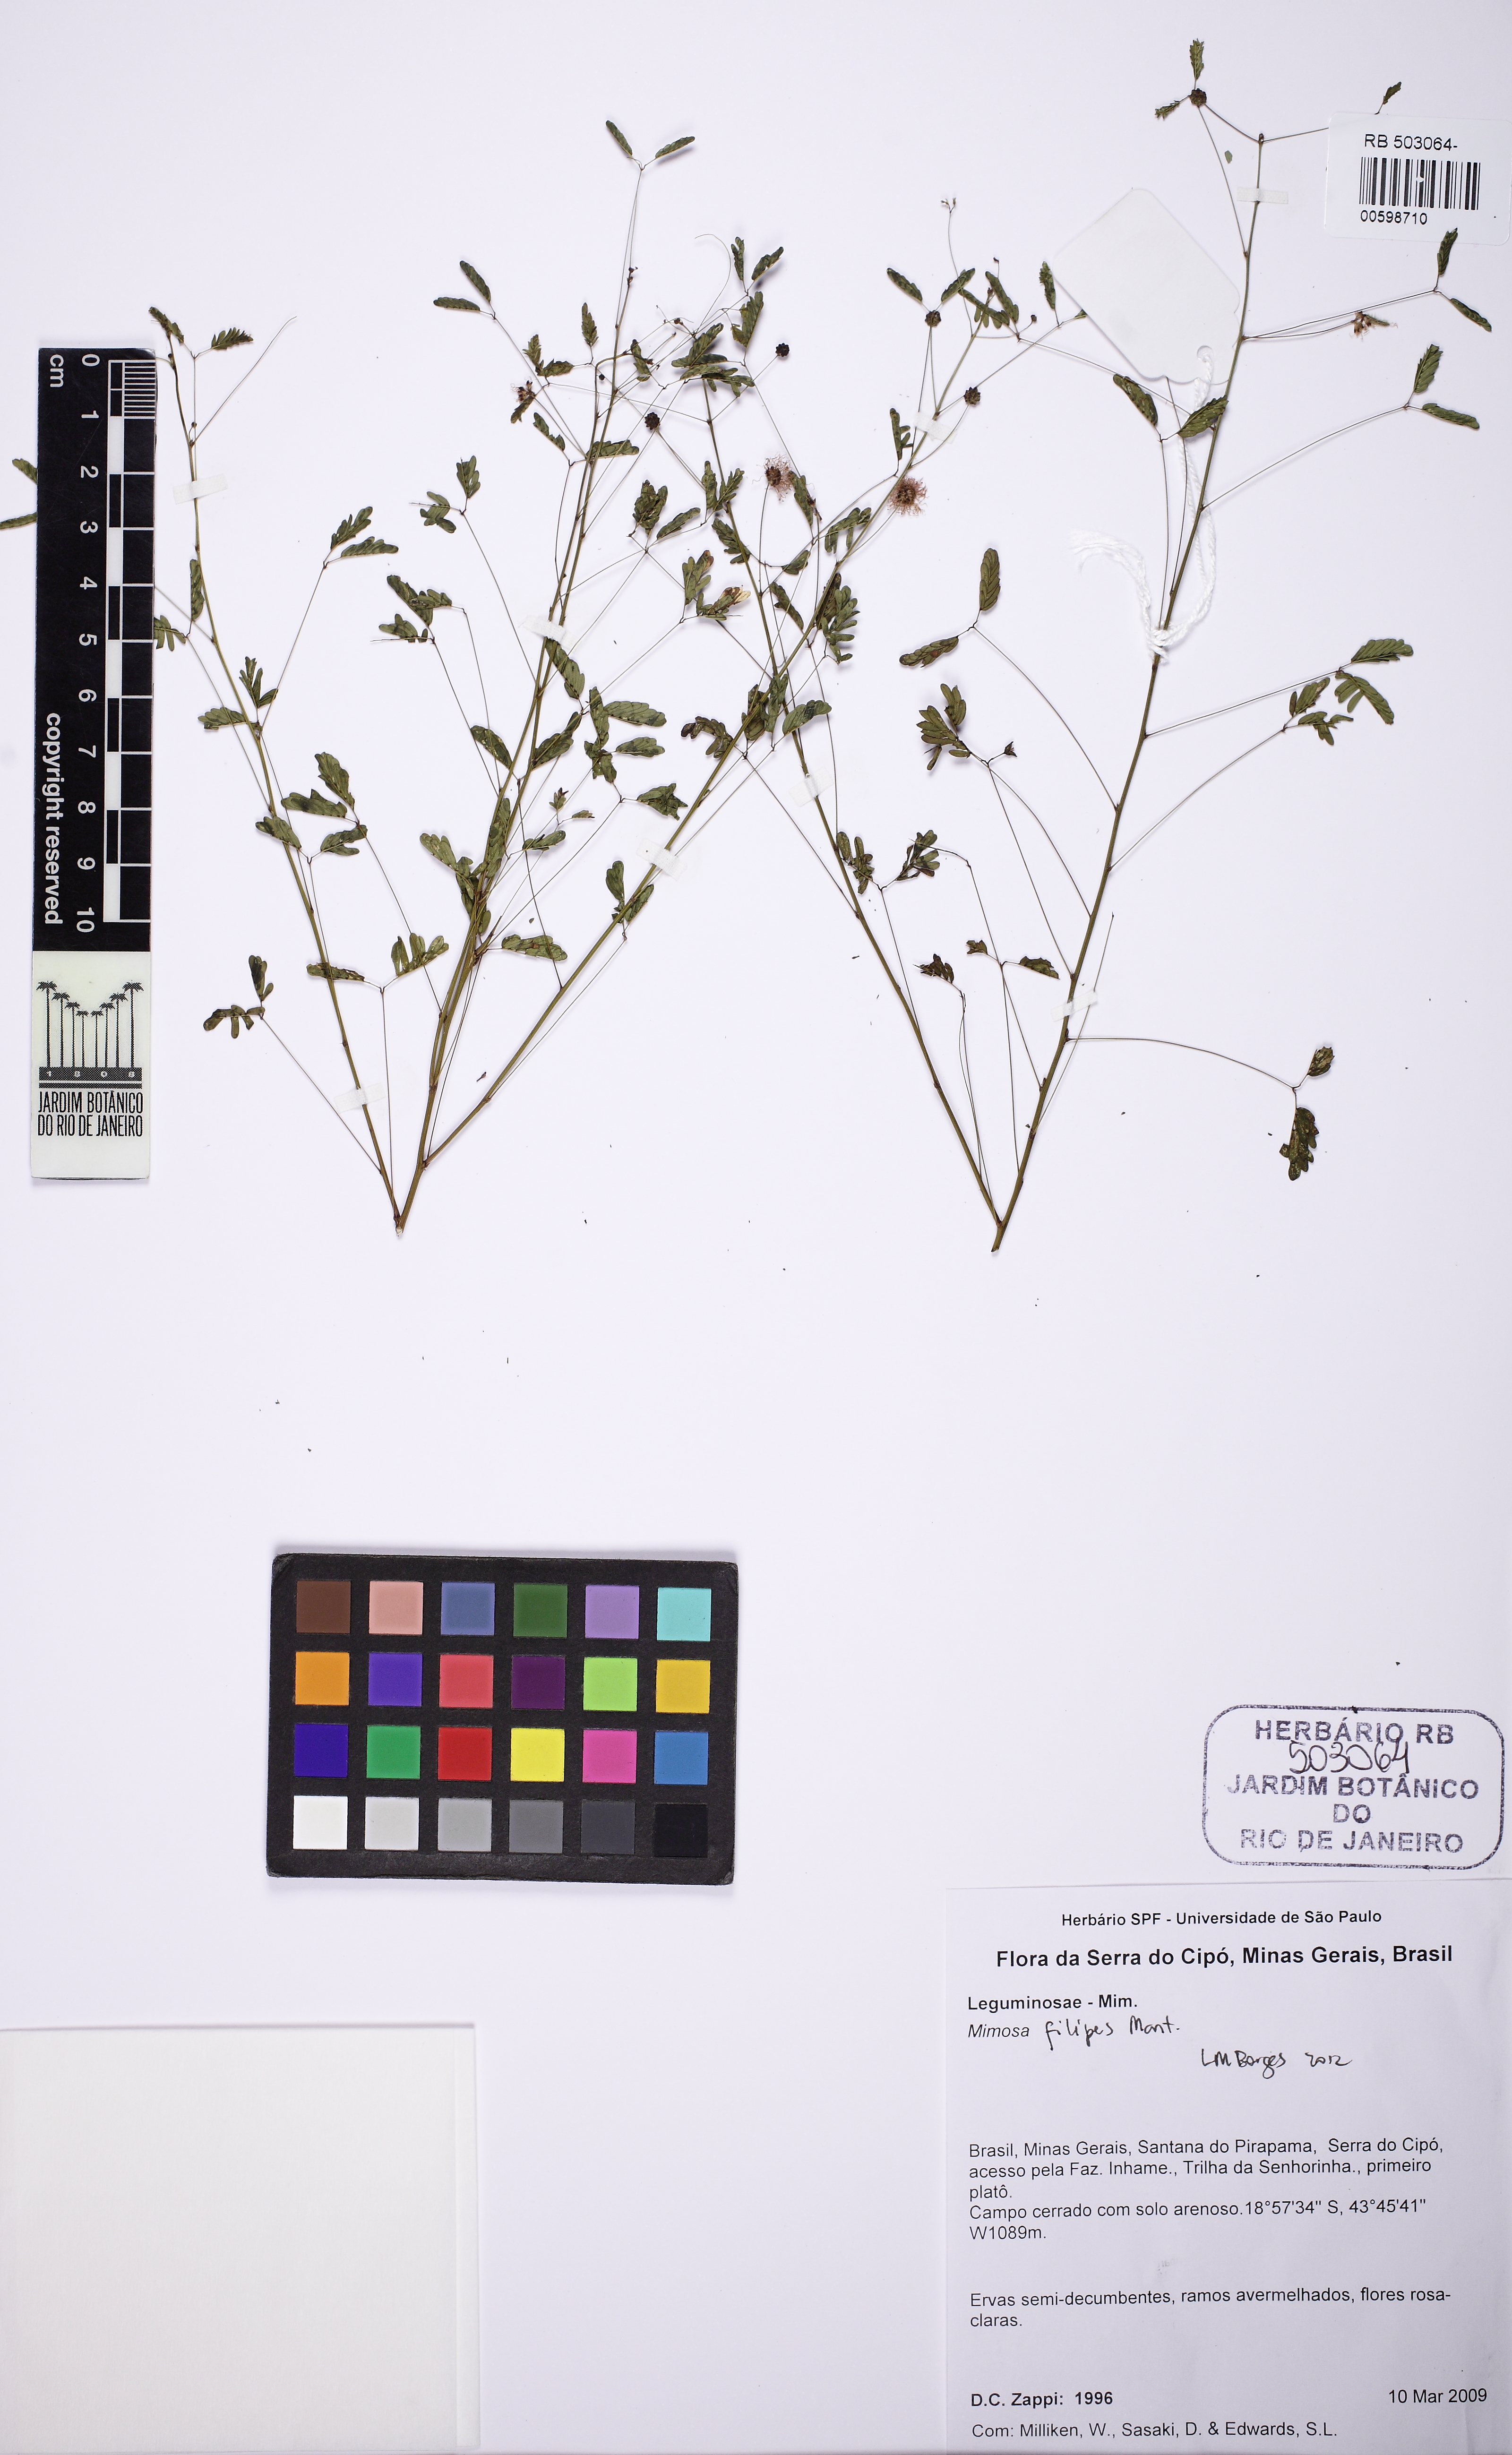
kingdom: Plantae
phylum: Tracheophyta
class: Magnoliopsida
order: Fabales
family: Fabaceae
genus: Mimosa
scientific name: Mimosa filipes
